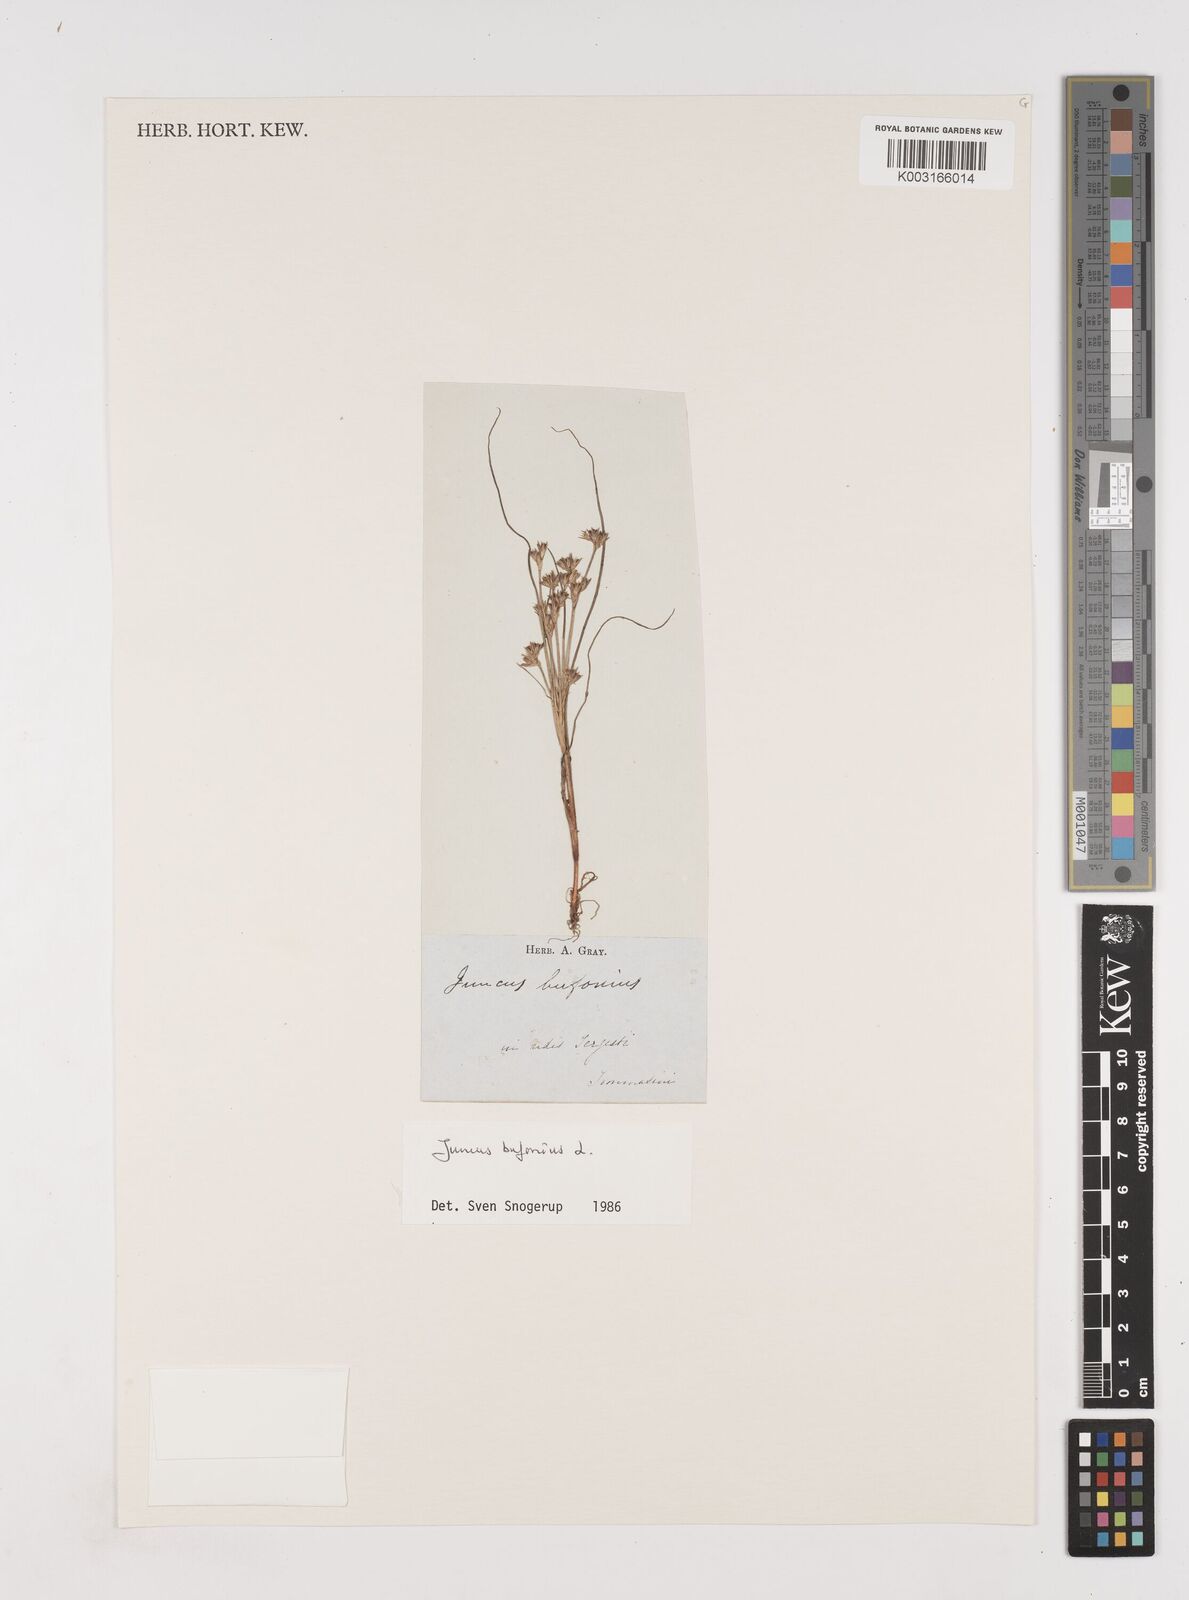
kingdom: Plantae
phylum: Tracheophyta
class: Liliopsida
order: Poales
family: Juncaceae
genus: Juncus
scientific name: Juncus bufonius
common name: Toad rush
